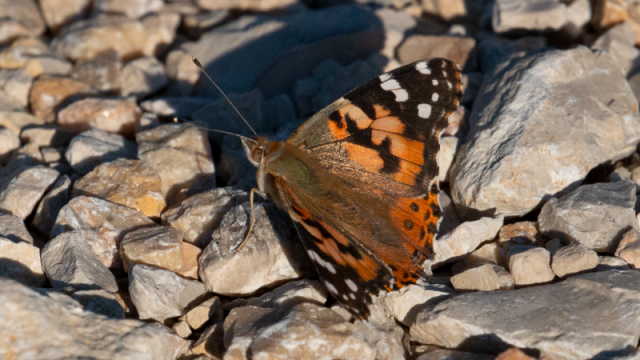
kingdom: Animalia
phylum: Arthropoda
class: Insecta
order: Lepidoptera
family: Nymphalidae
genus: Vanessa
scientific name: Vanessa cardui
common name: Painted Lady
